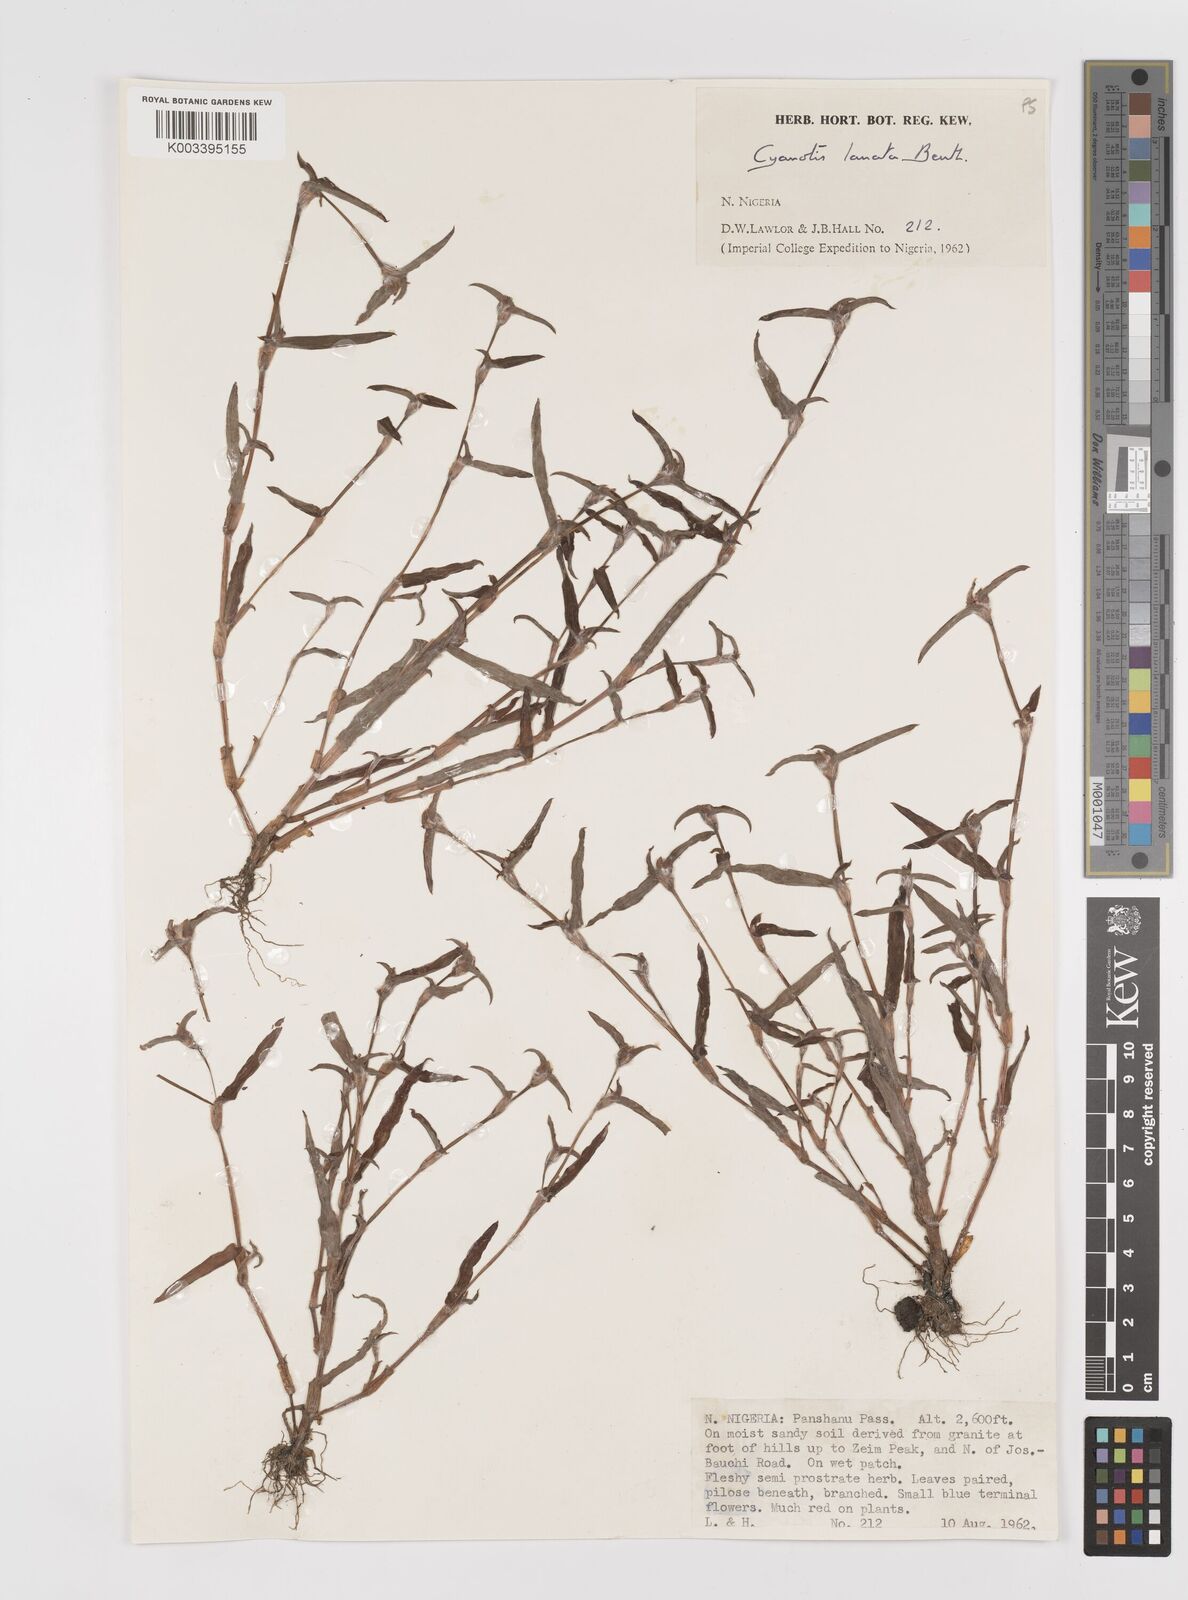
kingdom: Plantae
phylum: Tracheophyta
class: Liliopsida
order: Commelinales
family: Commelinaceae
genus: Cyanotis
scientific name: Cyanotis lanata
